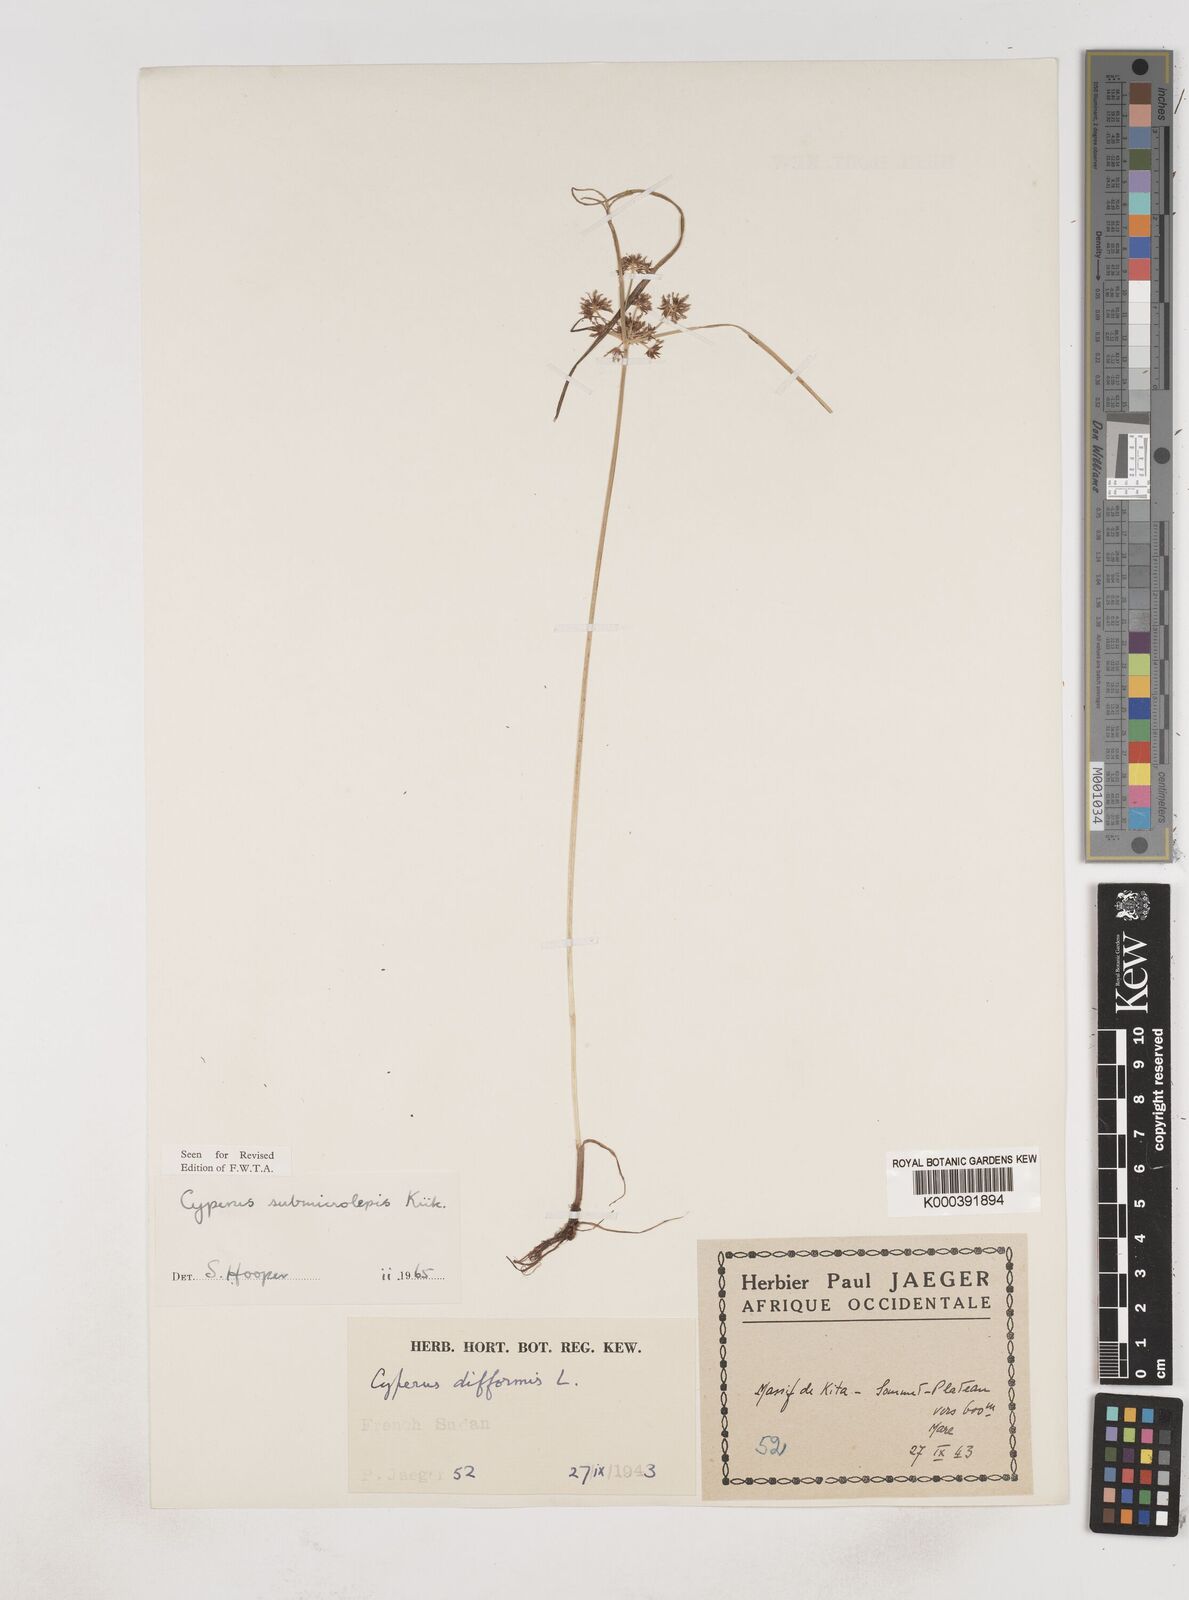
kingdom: Plantae
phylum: Tracheophyta
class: Liliopsida
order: Poales
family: Cyperaceae
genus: Cyperus
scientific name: Cyperus
